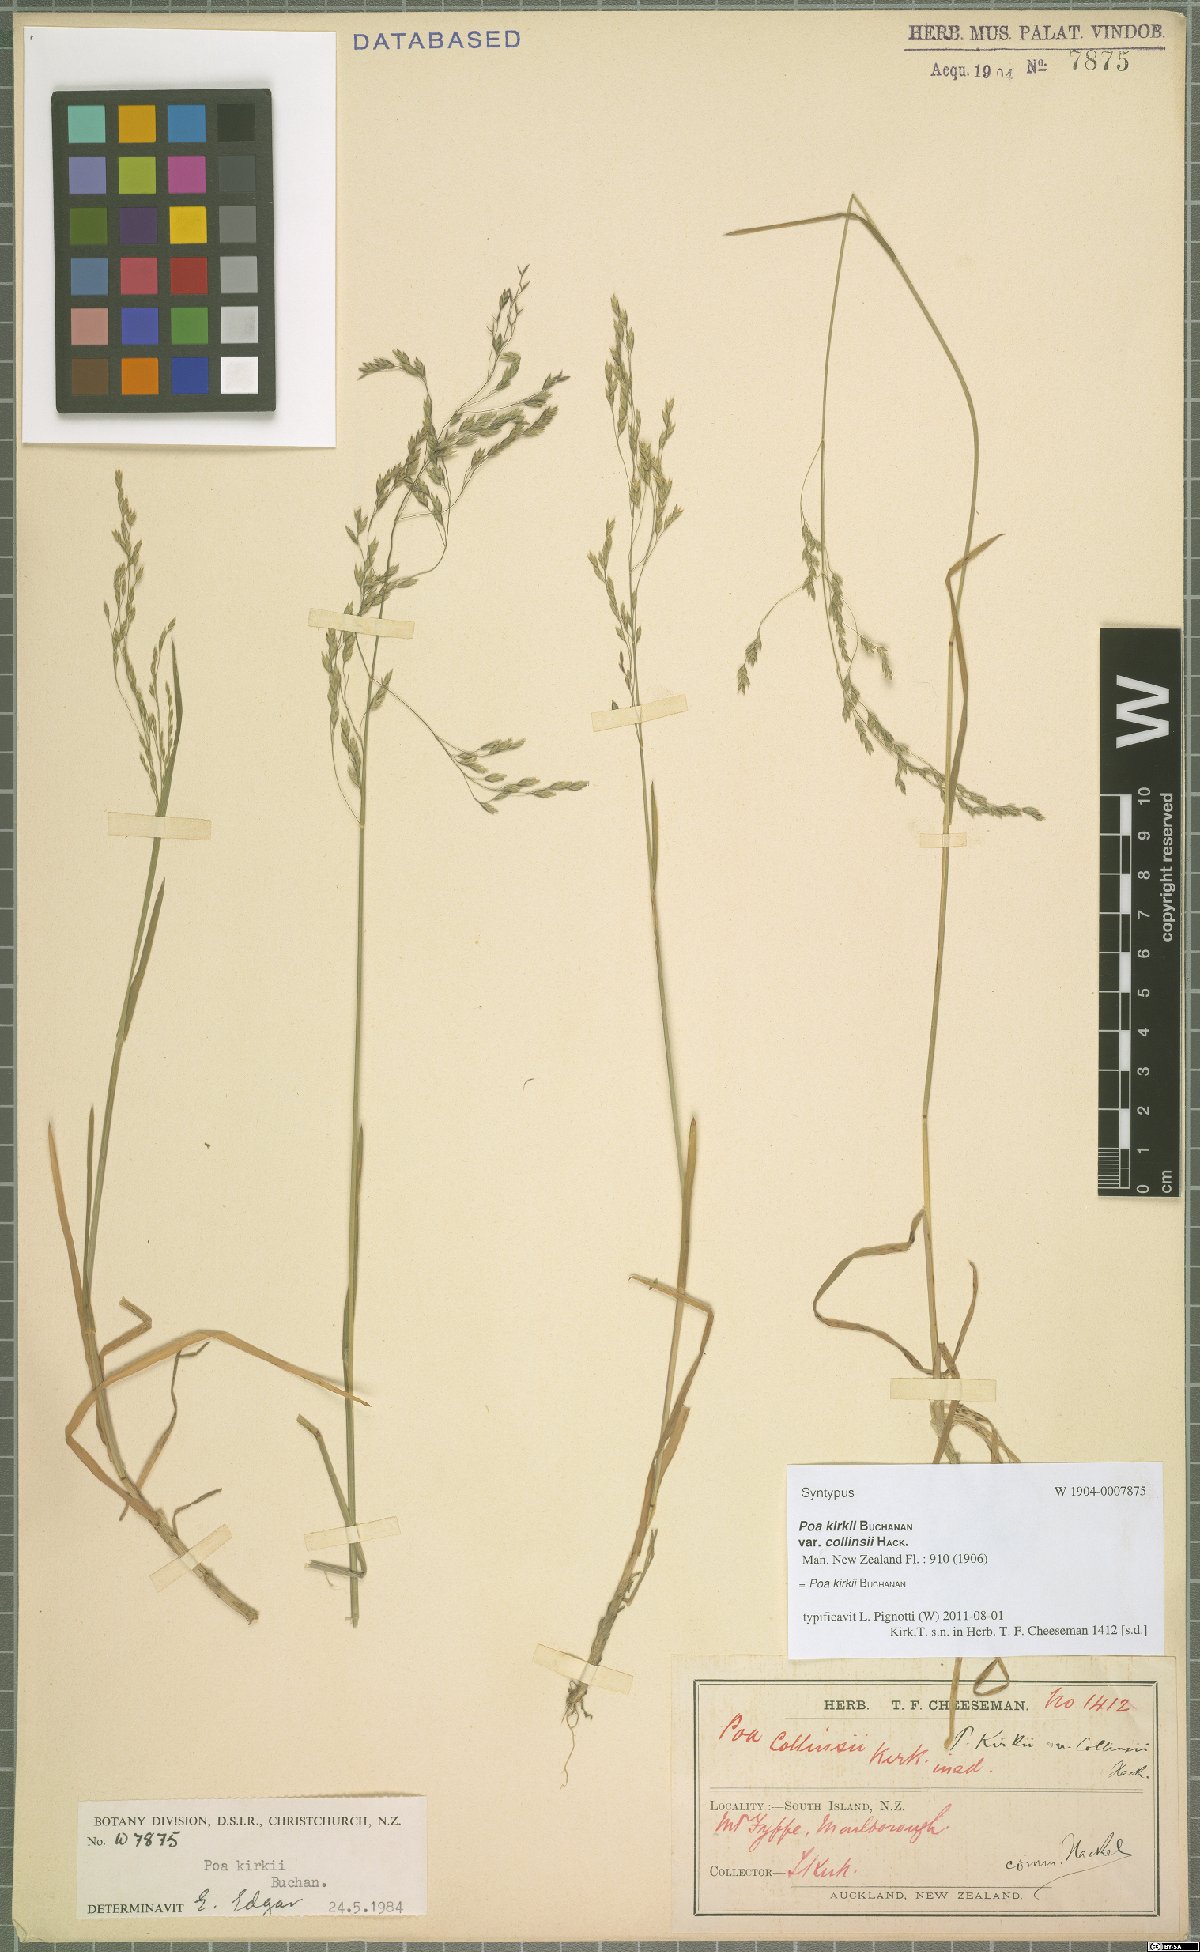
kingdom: Plantae
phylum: Tracheophyta
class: Liliopsida
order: Poales
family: Poaceae
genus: Poa
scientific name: Poa kirkii
